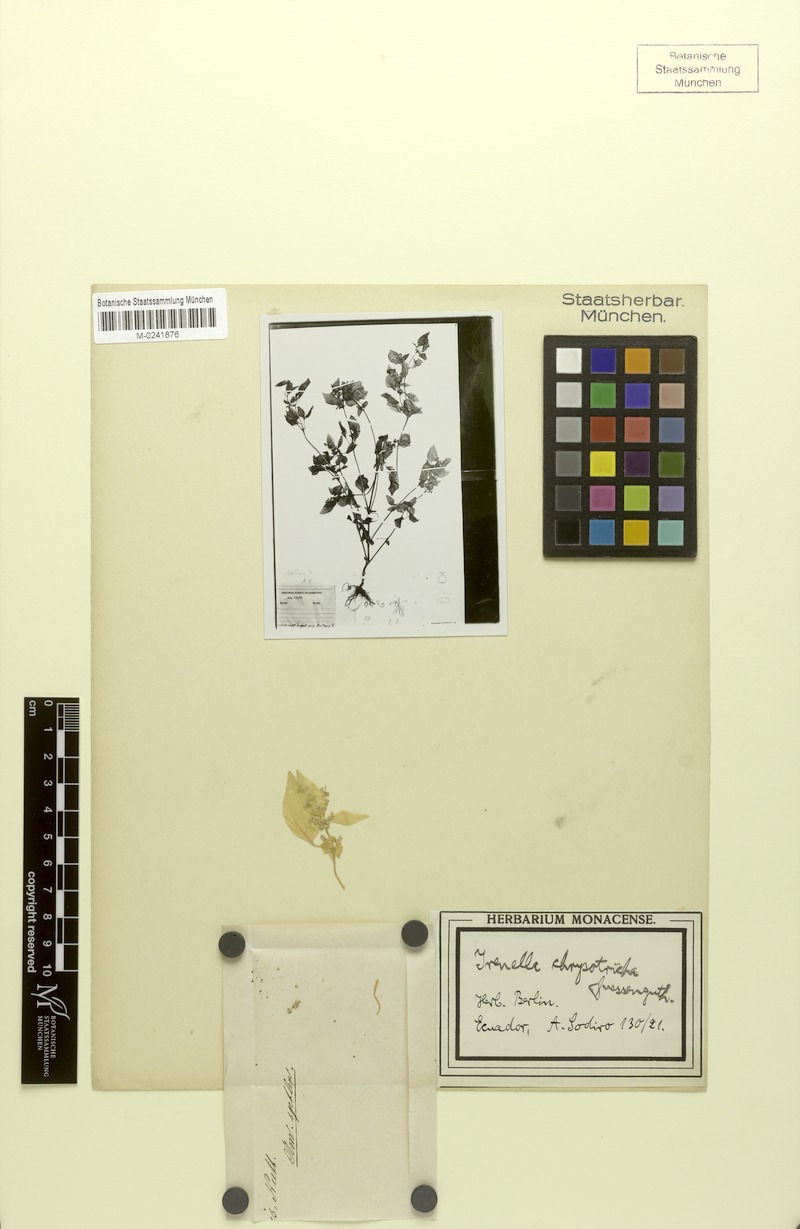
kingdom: Plantae
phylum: Tracheophyta
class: Magnoliopsida
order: Caryophyllales
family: Amaranthaceae
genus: Iresine
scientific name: Iresine chrysotricha
